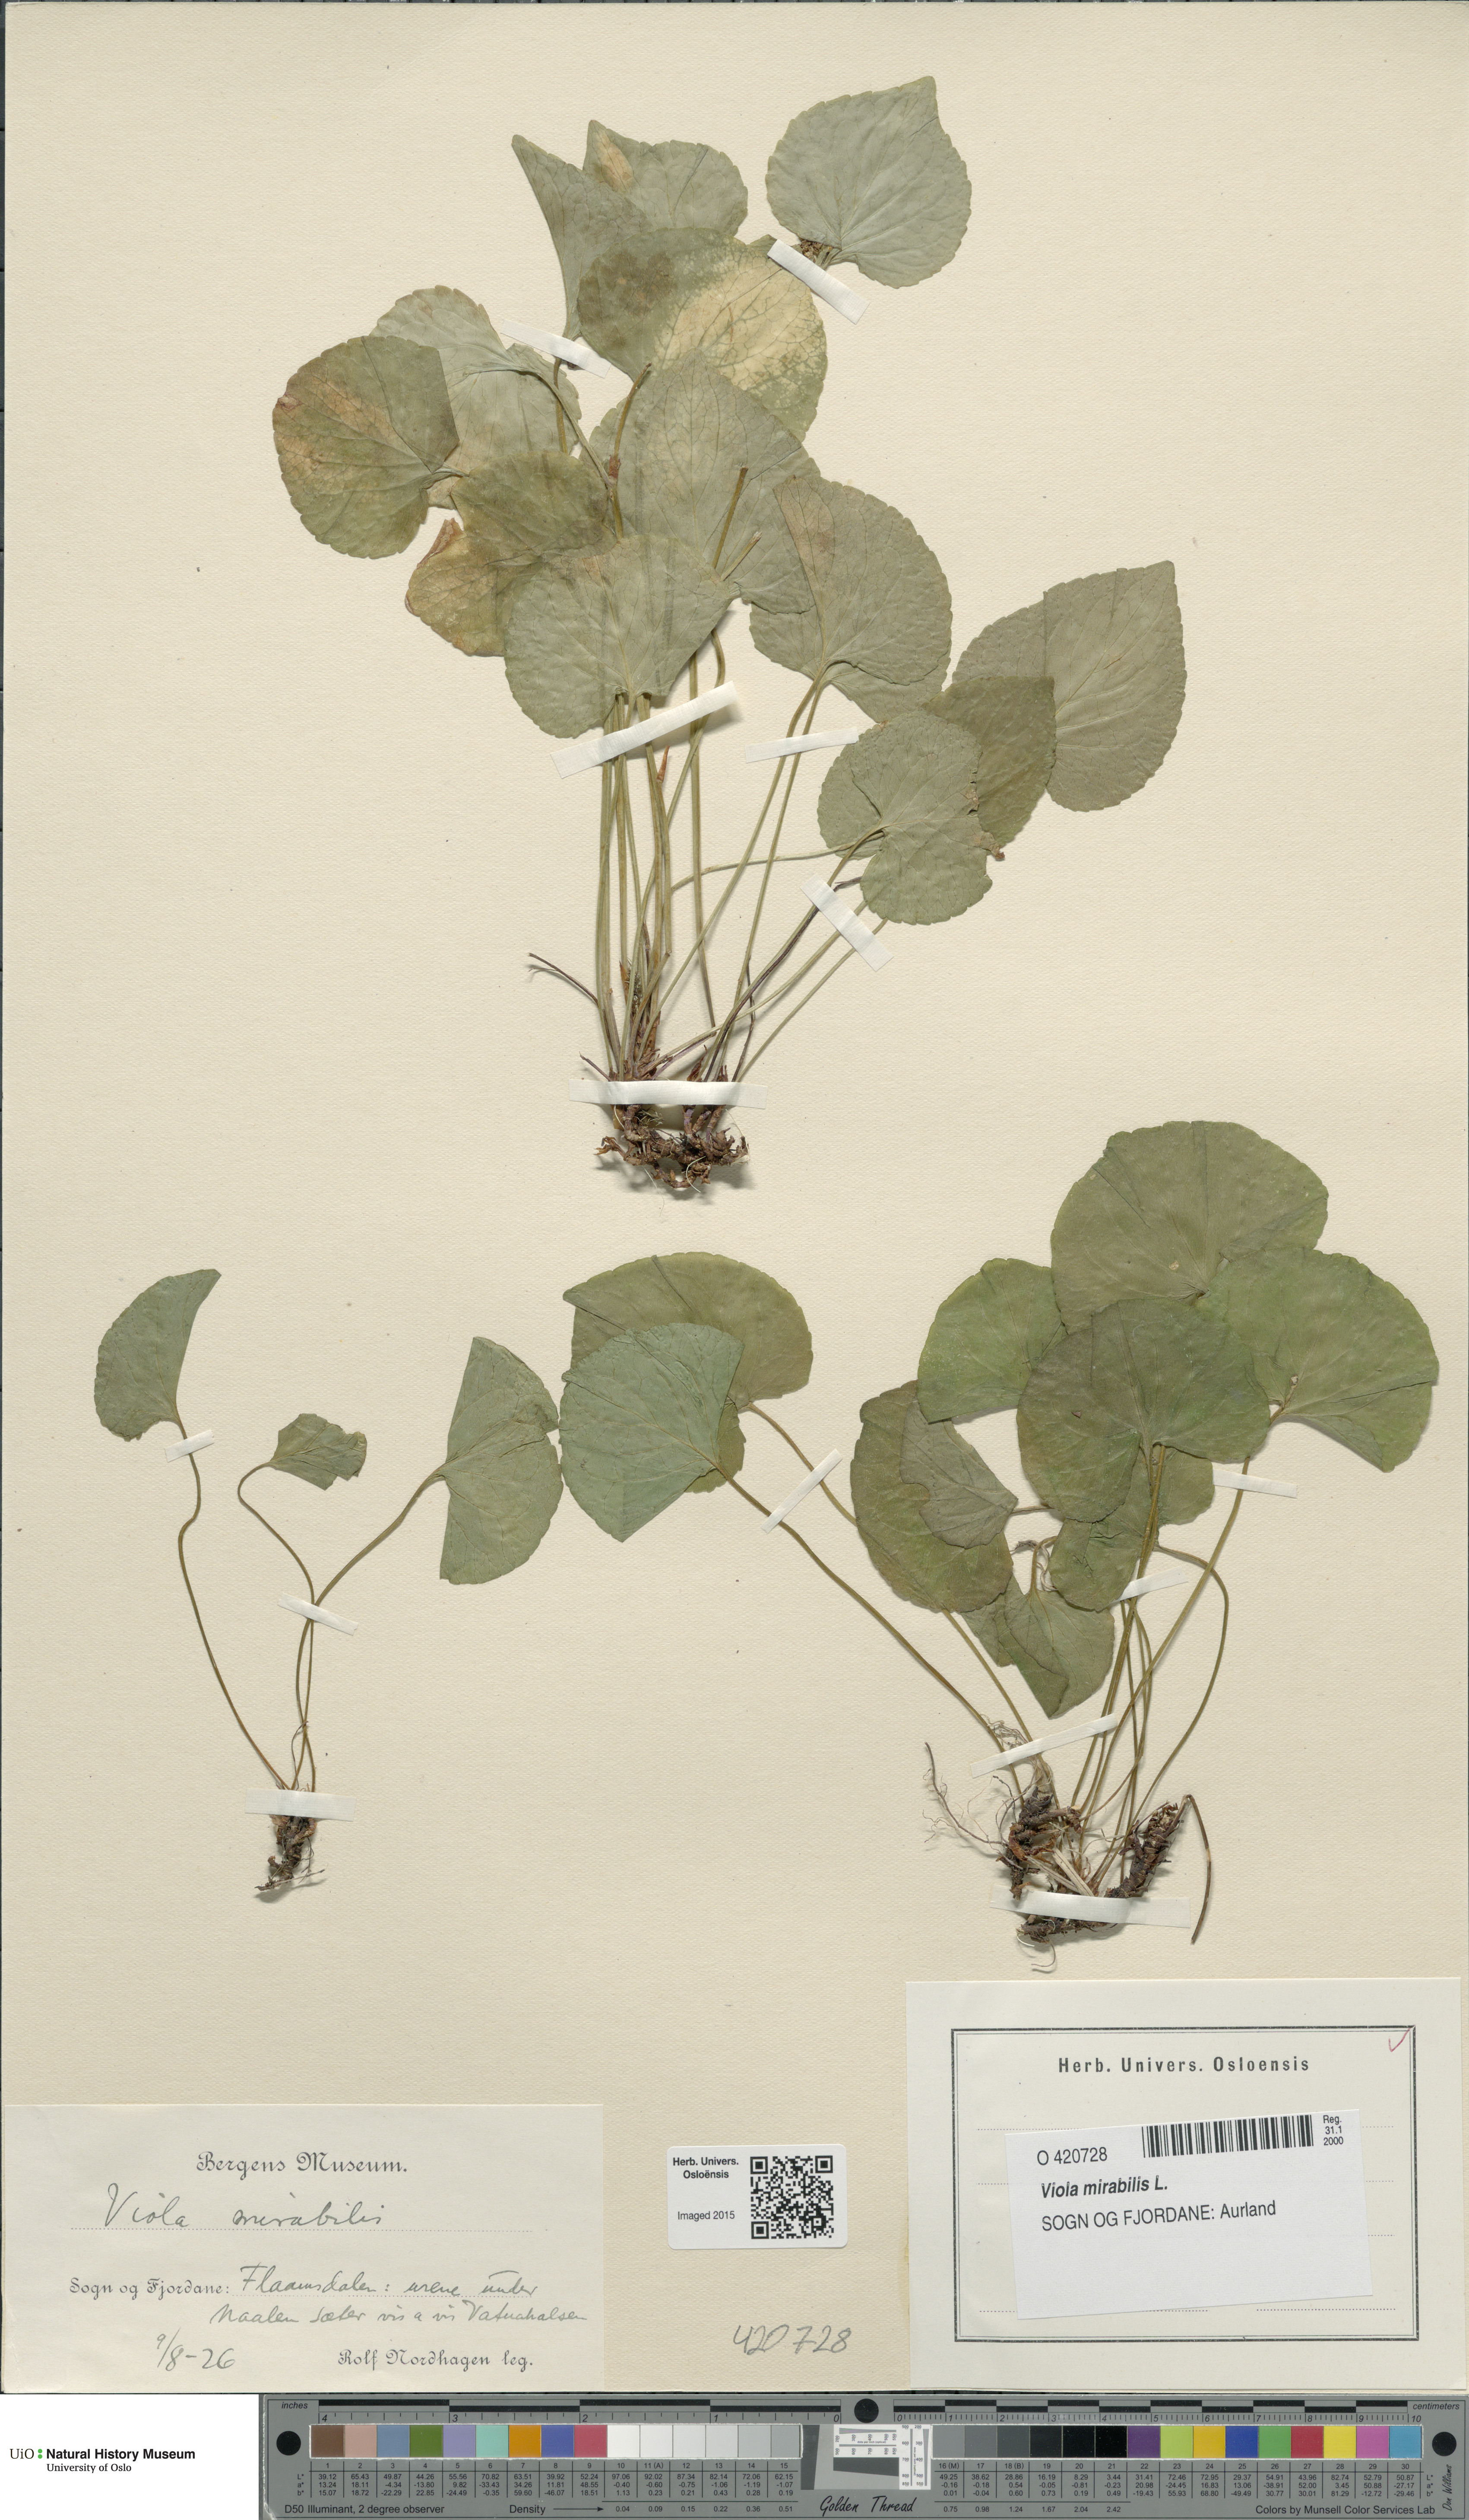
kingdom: Plantae
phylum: Tracheophyta
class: Magnoliopsida
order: Malpighiales
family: Violaceae
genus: Viola
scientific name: Viola mirabilis
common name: Wonder violet
